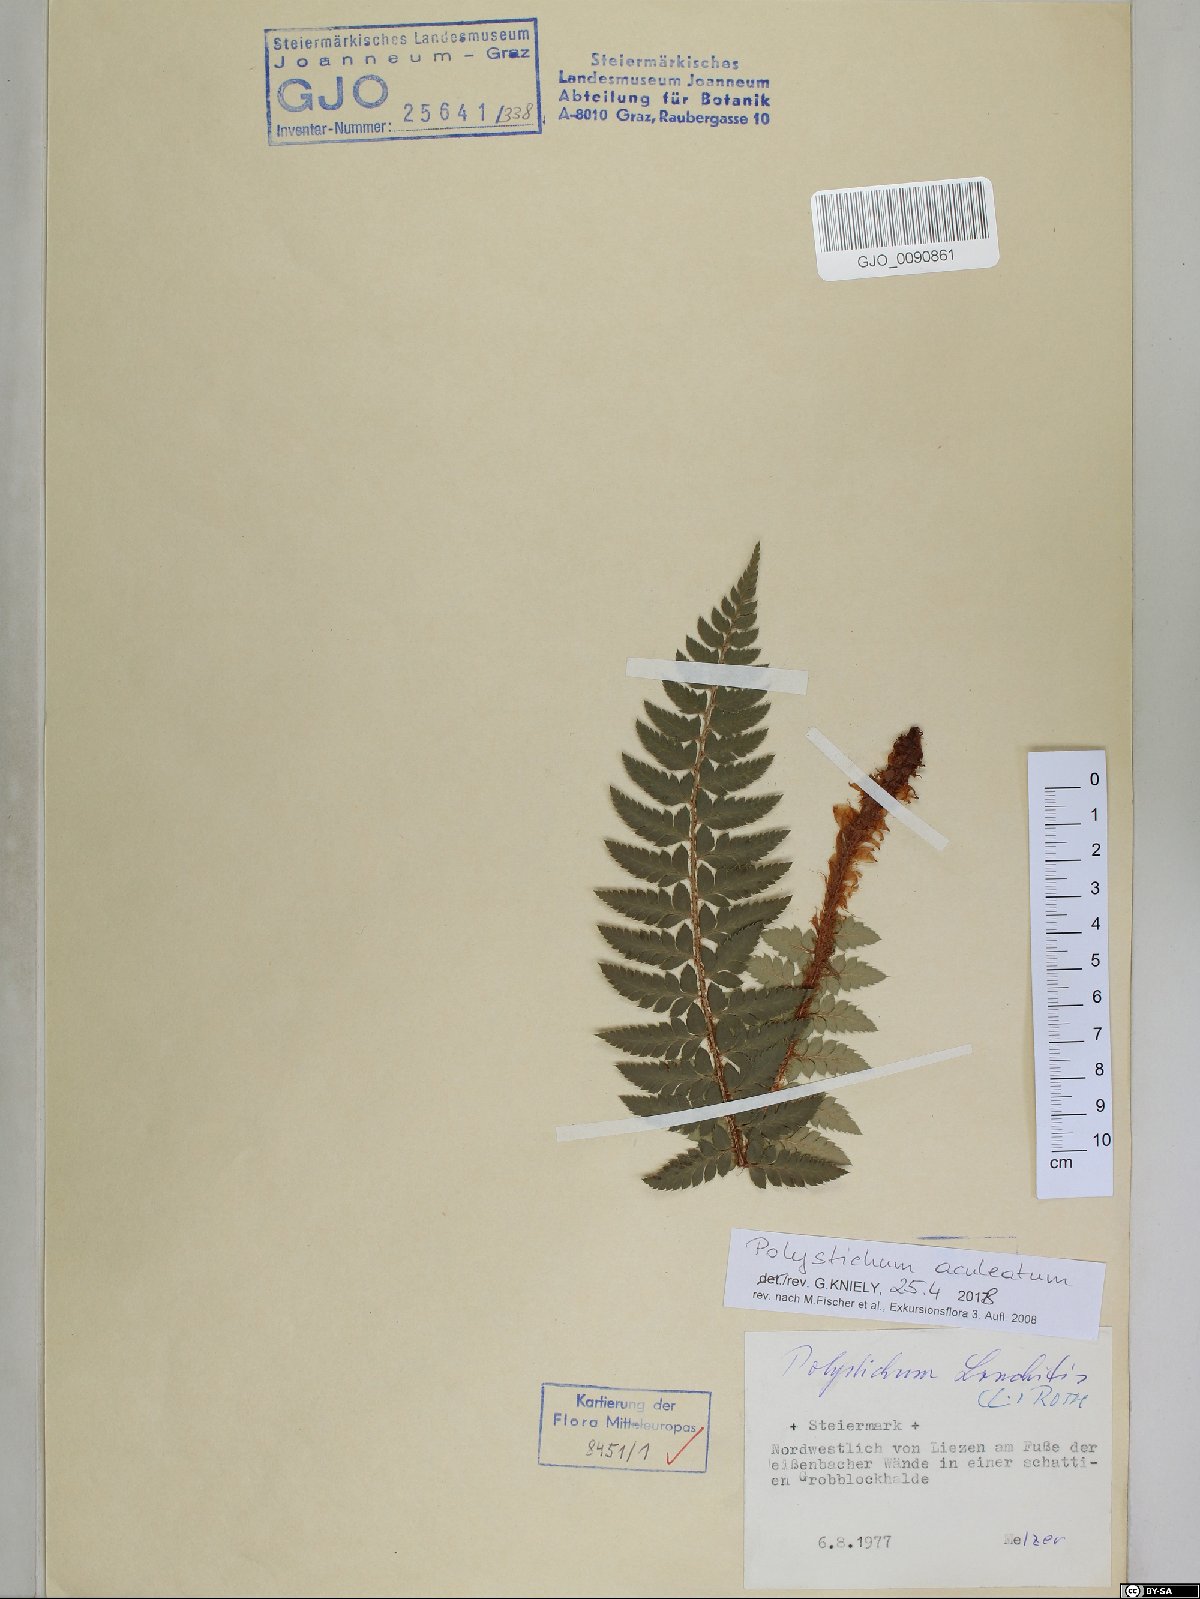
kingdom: Plantae
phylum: Tracheophyta
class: Polypodiopsida
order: Polypodiales
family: Dryopteridaceae
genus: Polystichum
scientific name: Polystichum aculeatum
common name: Hard shield-fern
